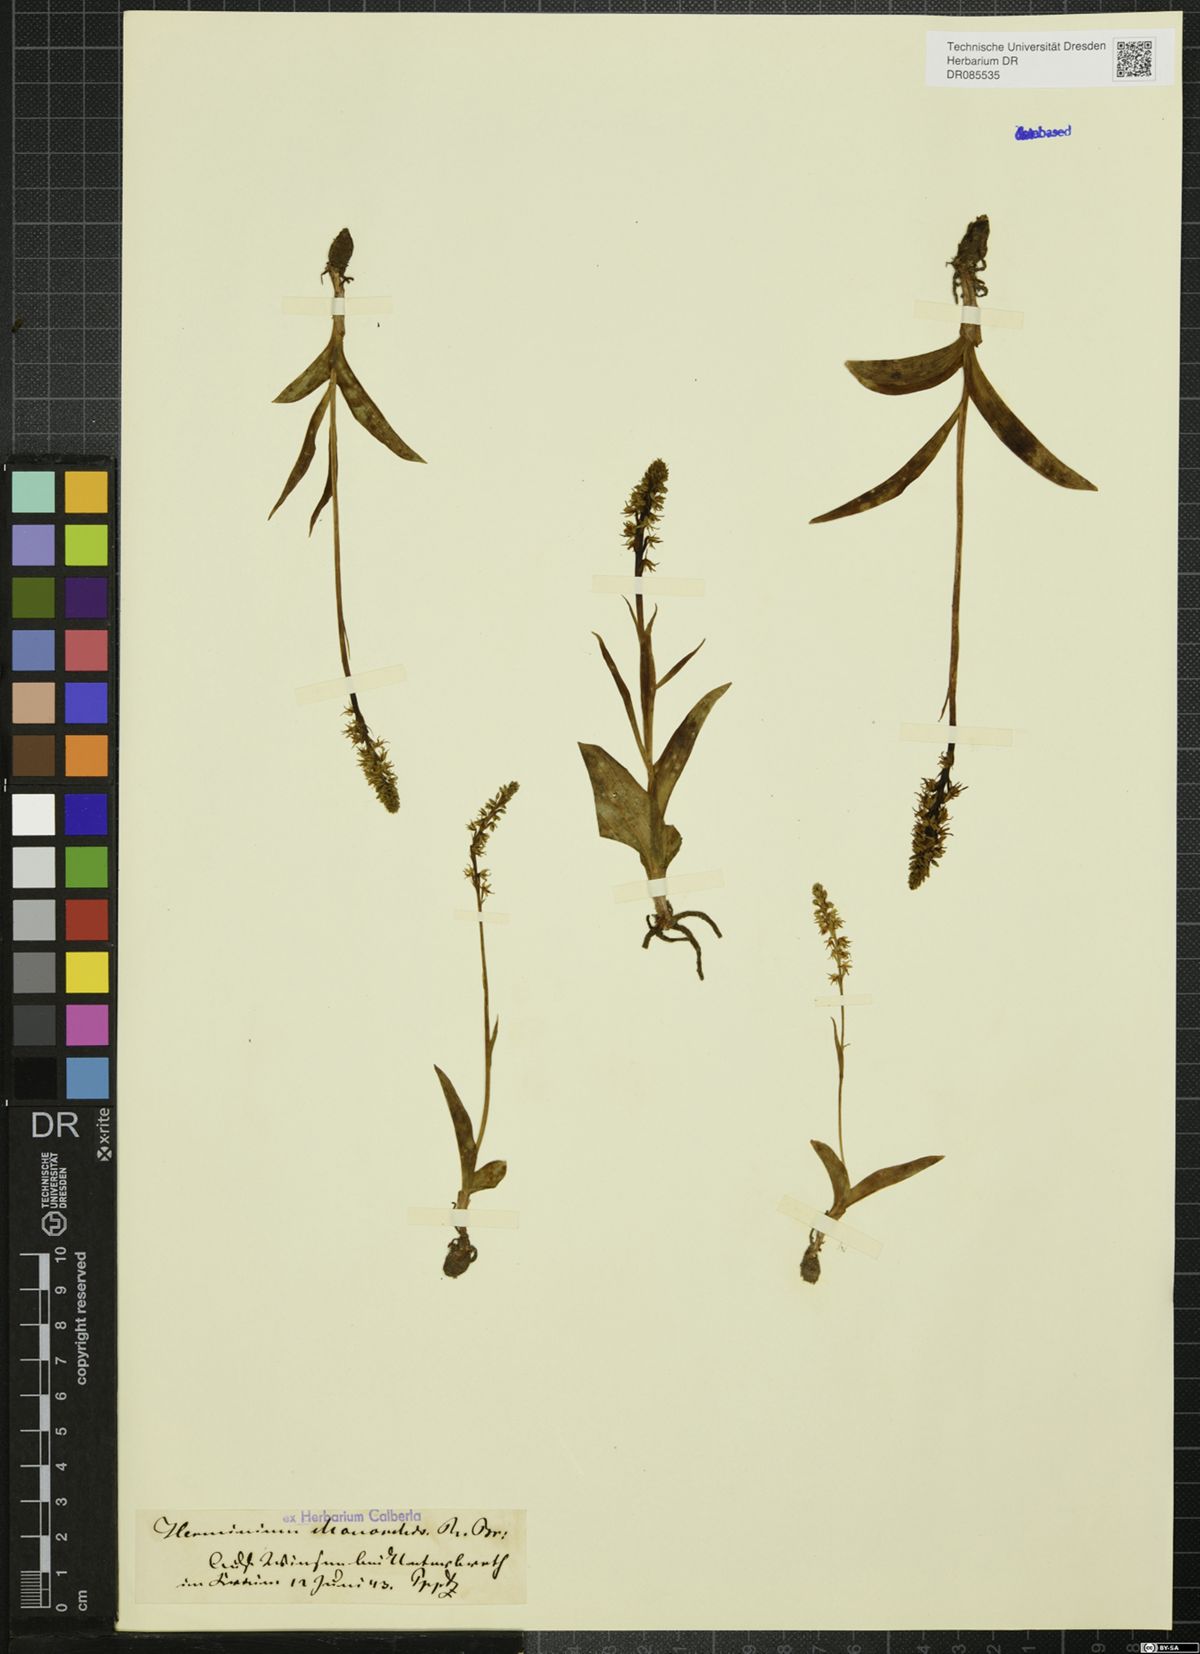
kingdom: Plantae
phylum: Tracheophyta
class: Liliopsida
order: Asparagales
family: Orchidaceae
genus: Herminium
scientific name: Herminium monorchis
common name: Musk orchid
